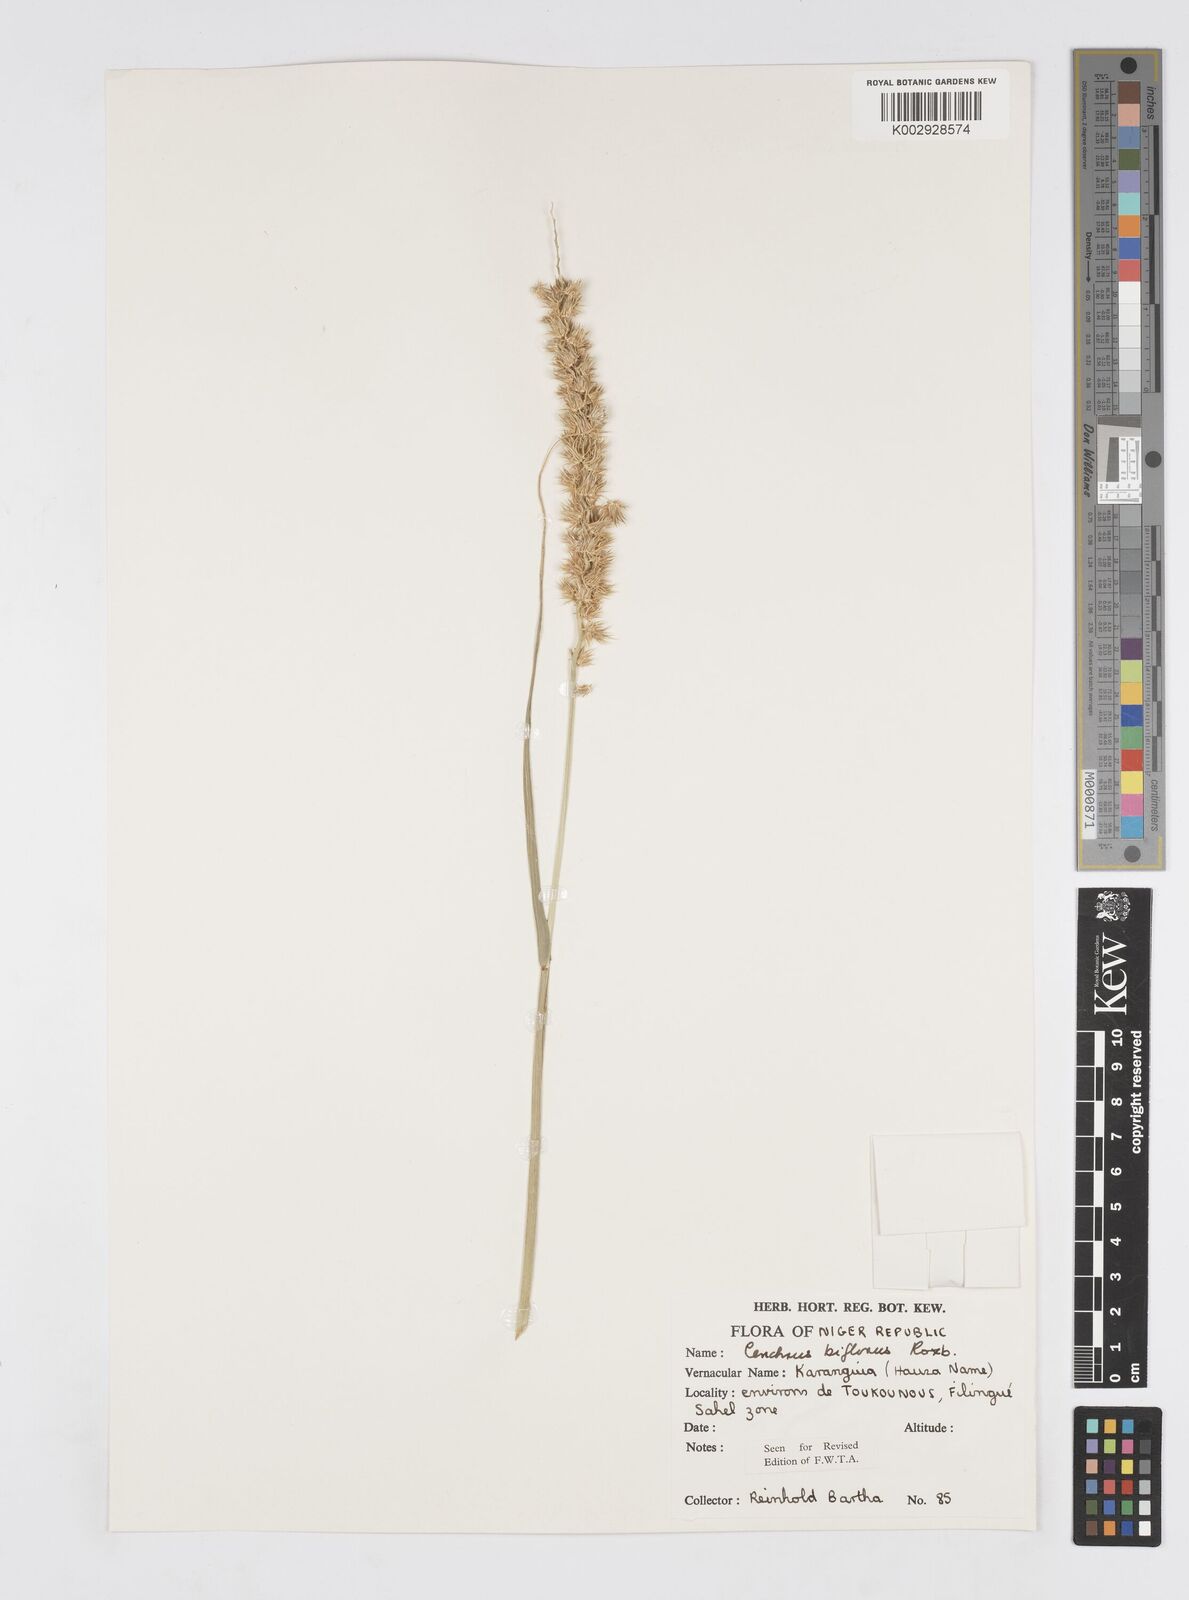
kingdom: Plantae
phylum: Tracheophyta
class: Liliopsida
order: Poales
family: Poaceae
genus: Cenchrus
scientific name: Cenchrus biflorus
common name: Indian sandbur
